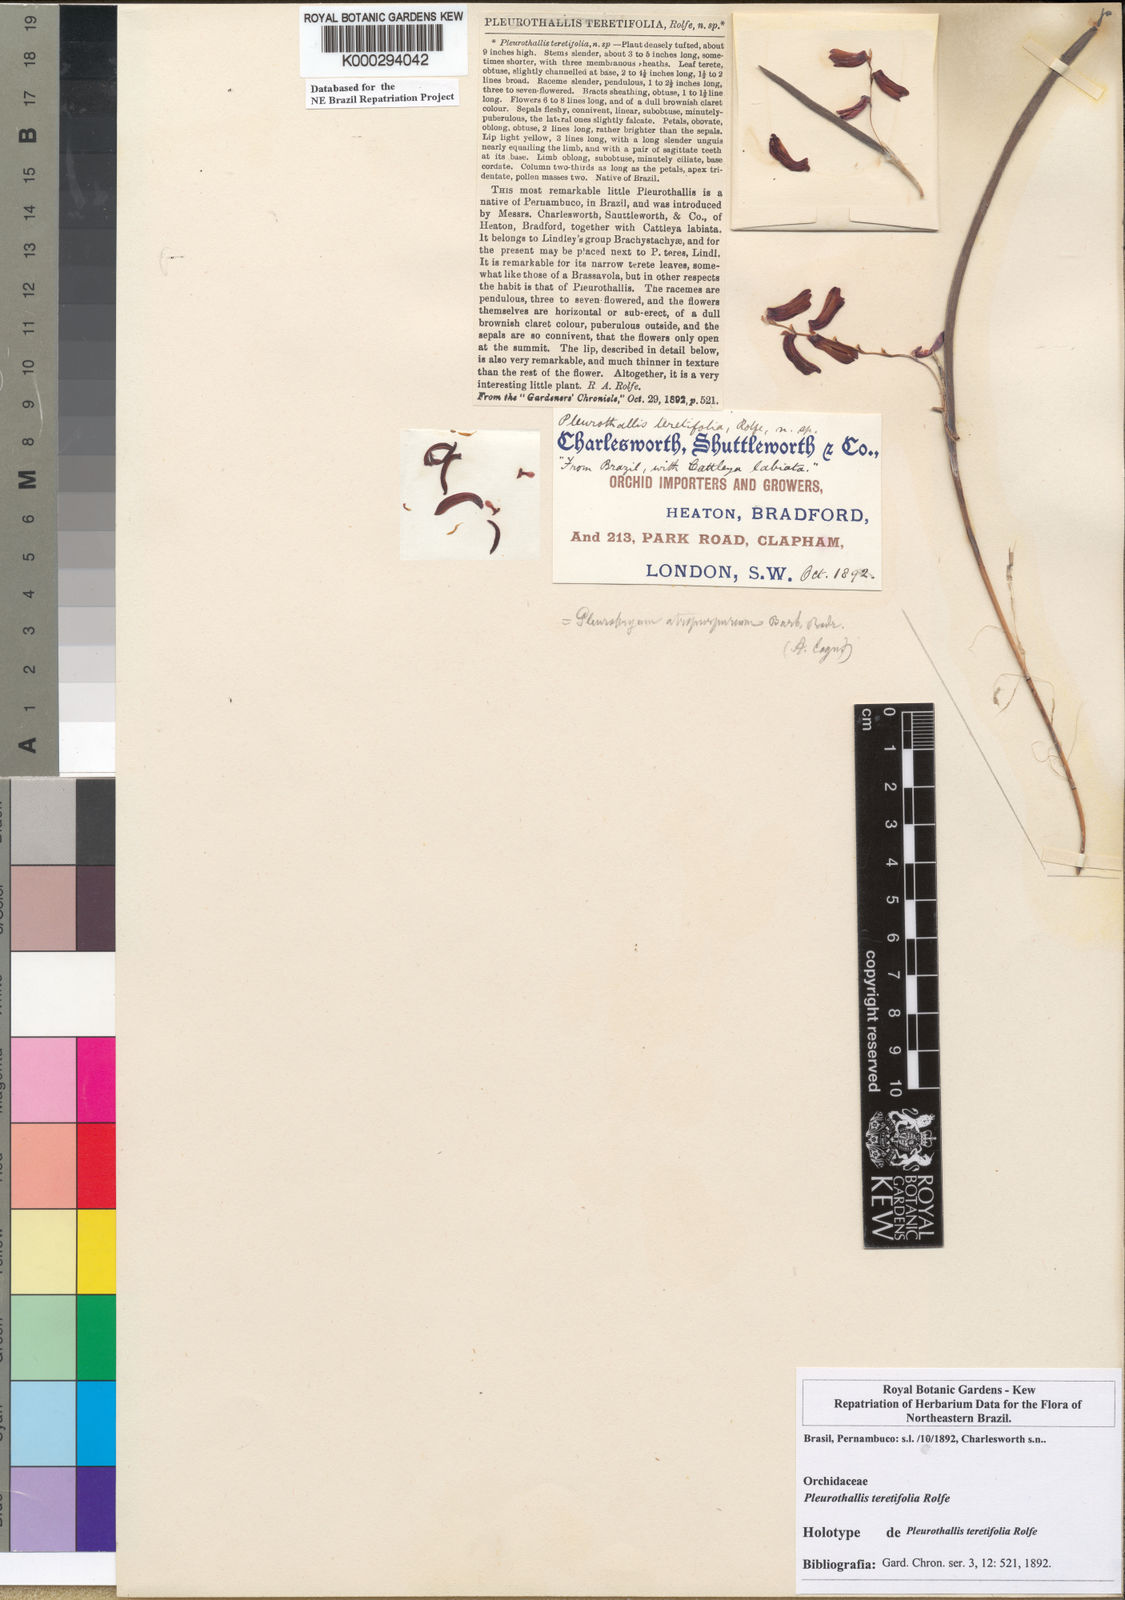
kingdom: Plantae
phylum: Tracheophyta
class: Liliopsida
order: Asparagales
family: Orchidaceae
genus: Acianthera
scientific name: Acianthera atropurpurea
